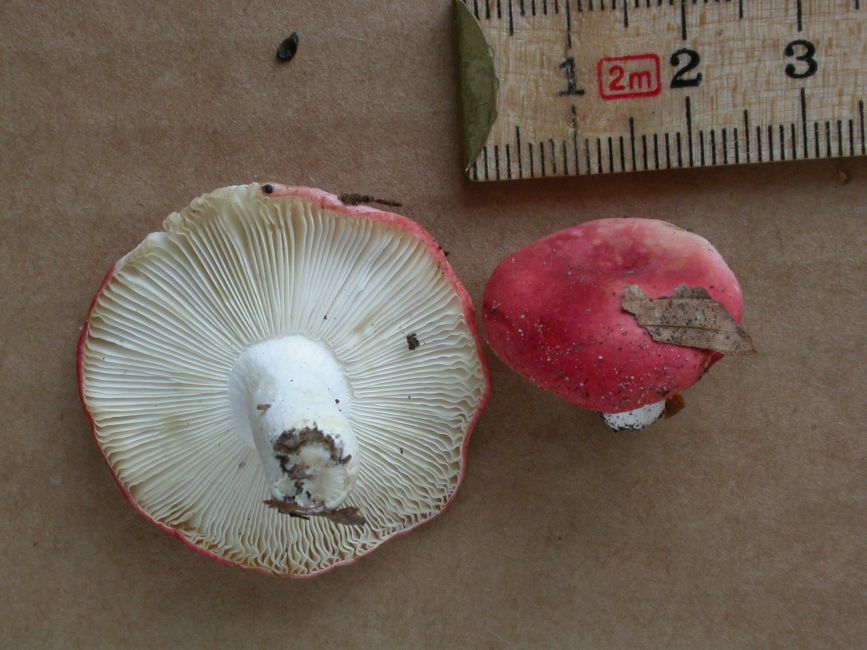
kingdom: Fungi
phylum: Basidiomycota
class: Agaricomycetes
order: Russulales
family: Russulaceae
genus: Russula
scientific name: Russula emetica
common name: stor gift-skørhat
